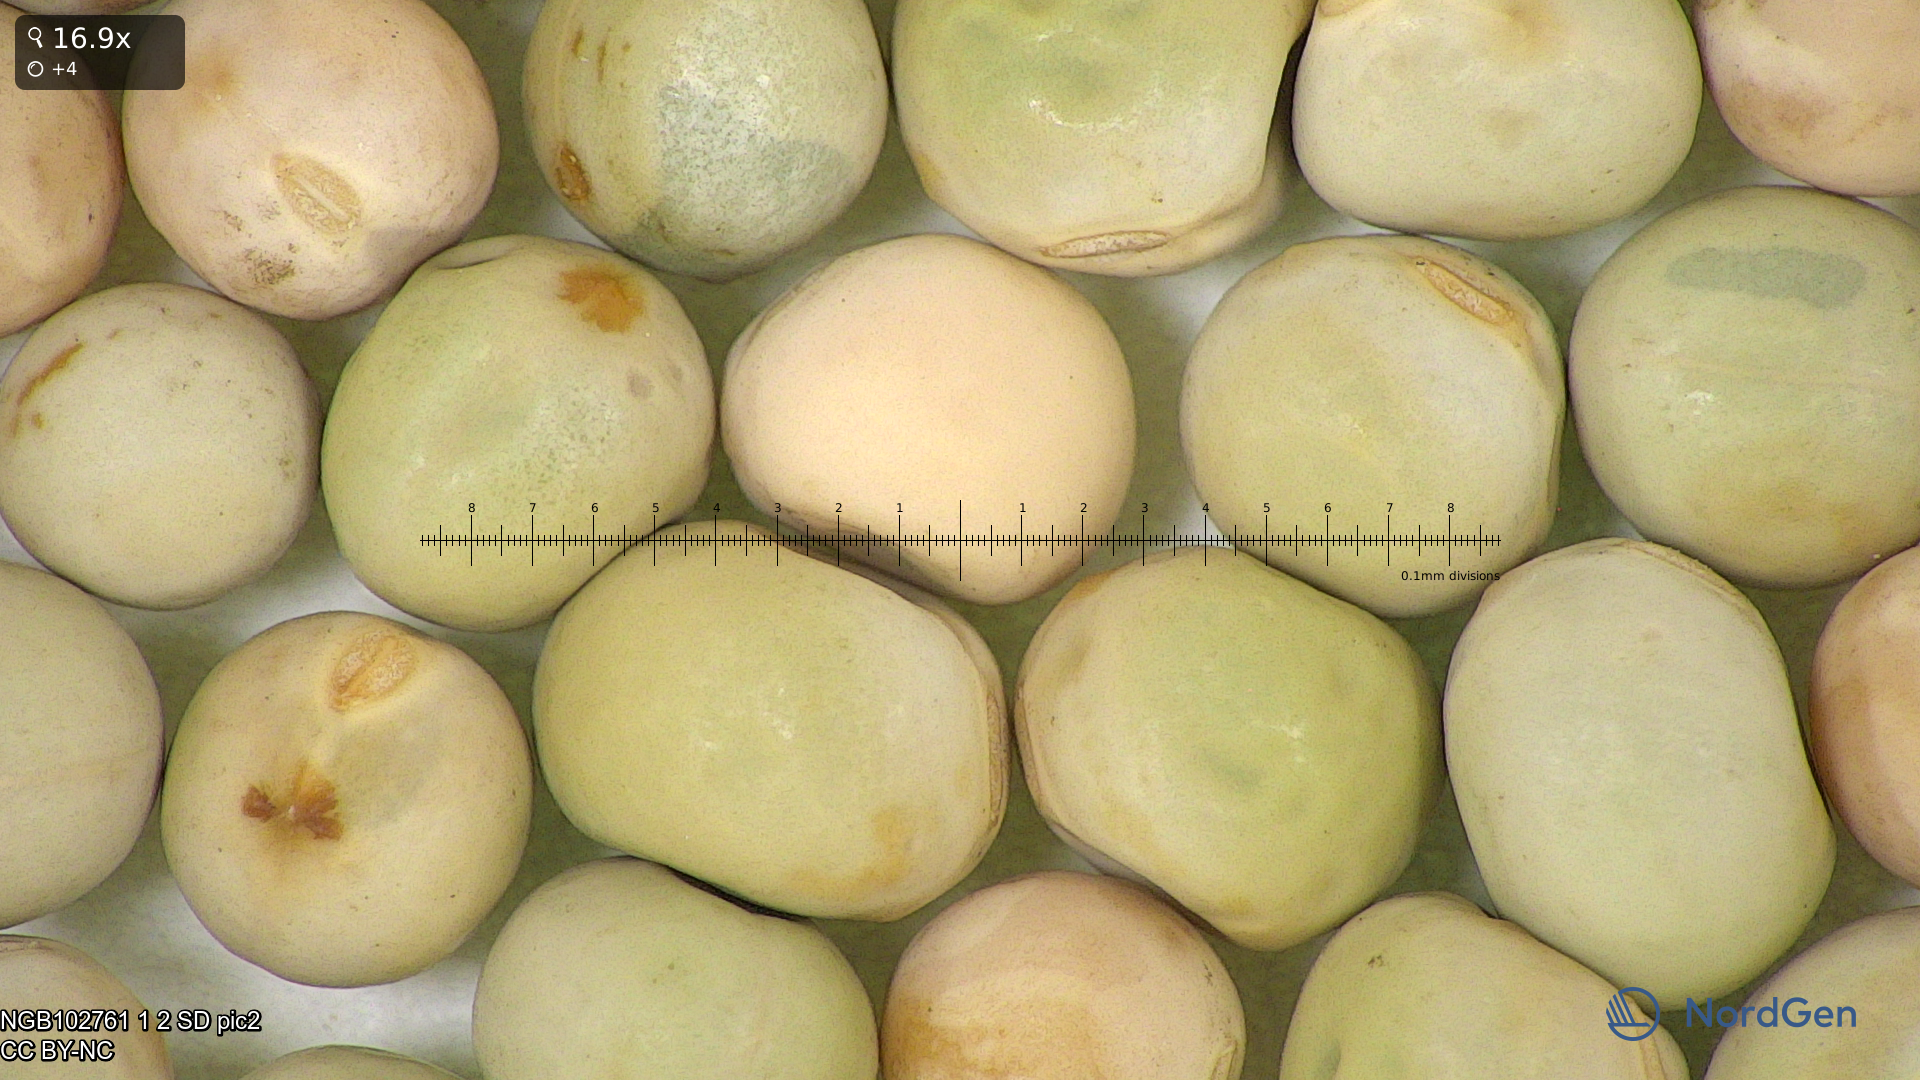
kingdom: Plantae
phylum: Tracheophyta
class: Magnoliopsida
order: Fabales
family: Fabaceae
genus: Lathyrus
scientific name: Lathyrus oleraceus
